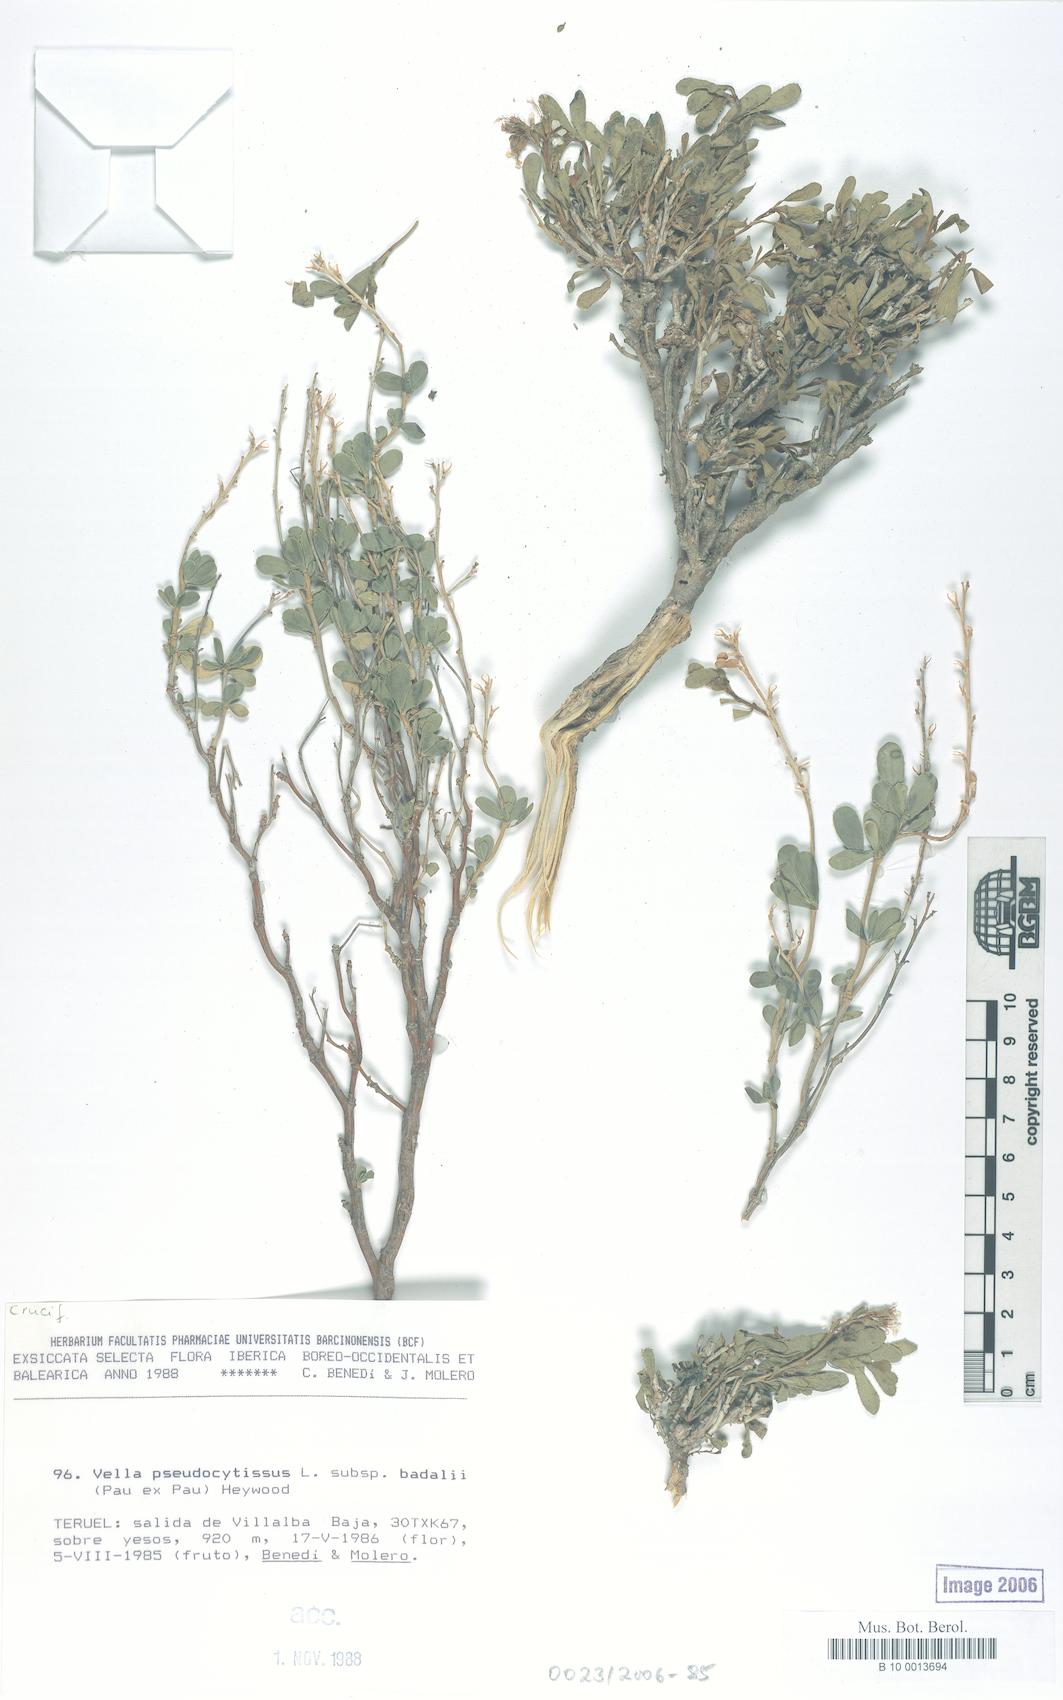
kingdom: Plantae
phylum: Tracheophyta
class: Magnoliopsida
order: Brassicales
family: Brassicaceae
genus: Vella
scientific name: Vella pseudocytisus
